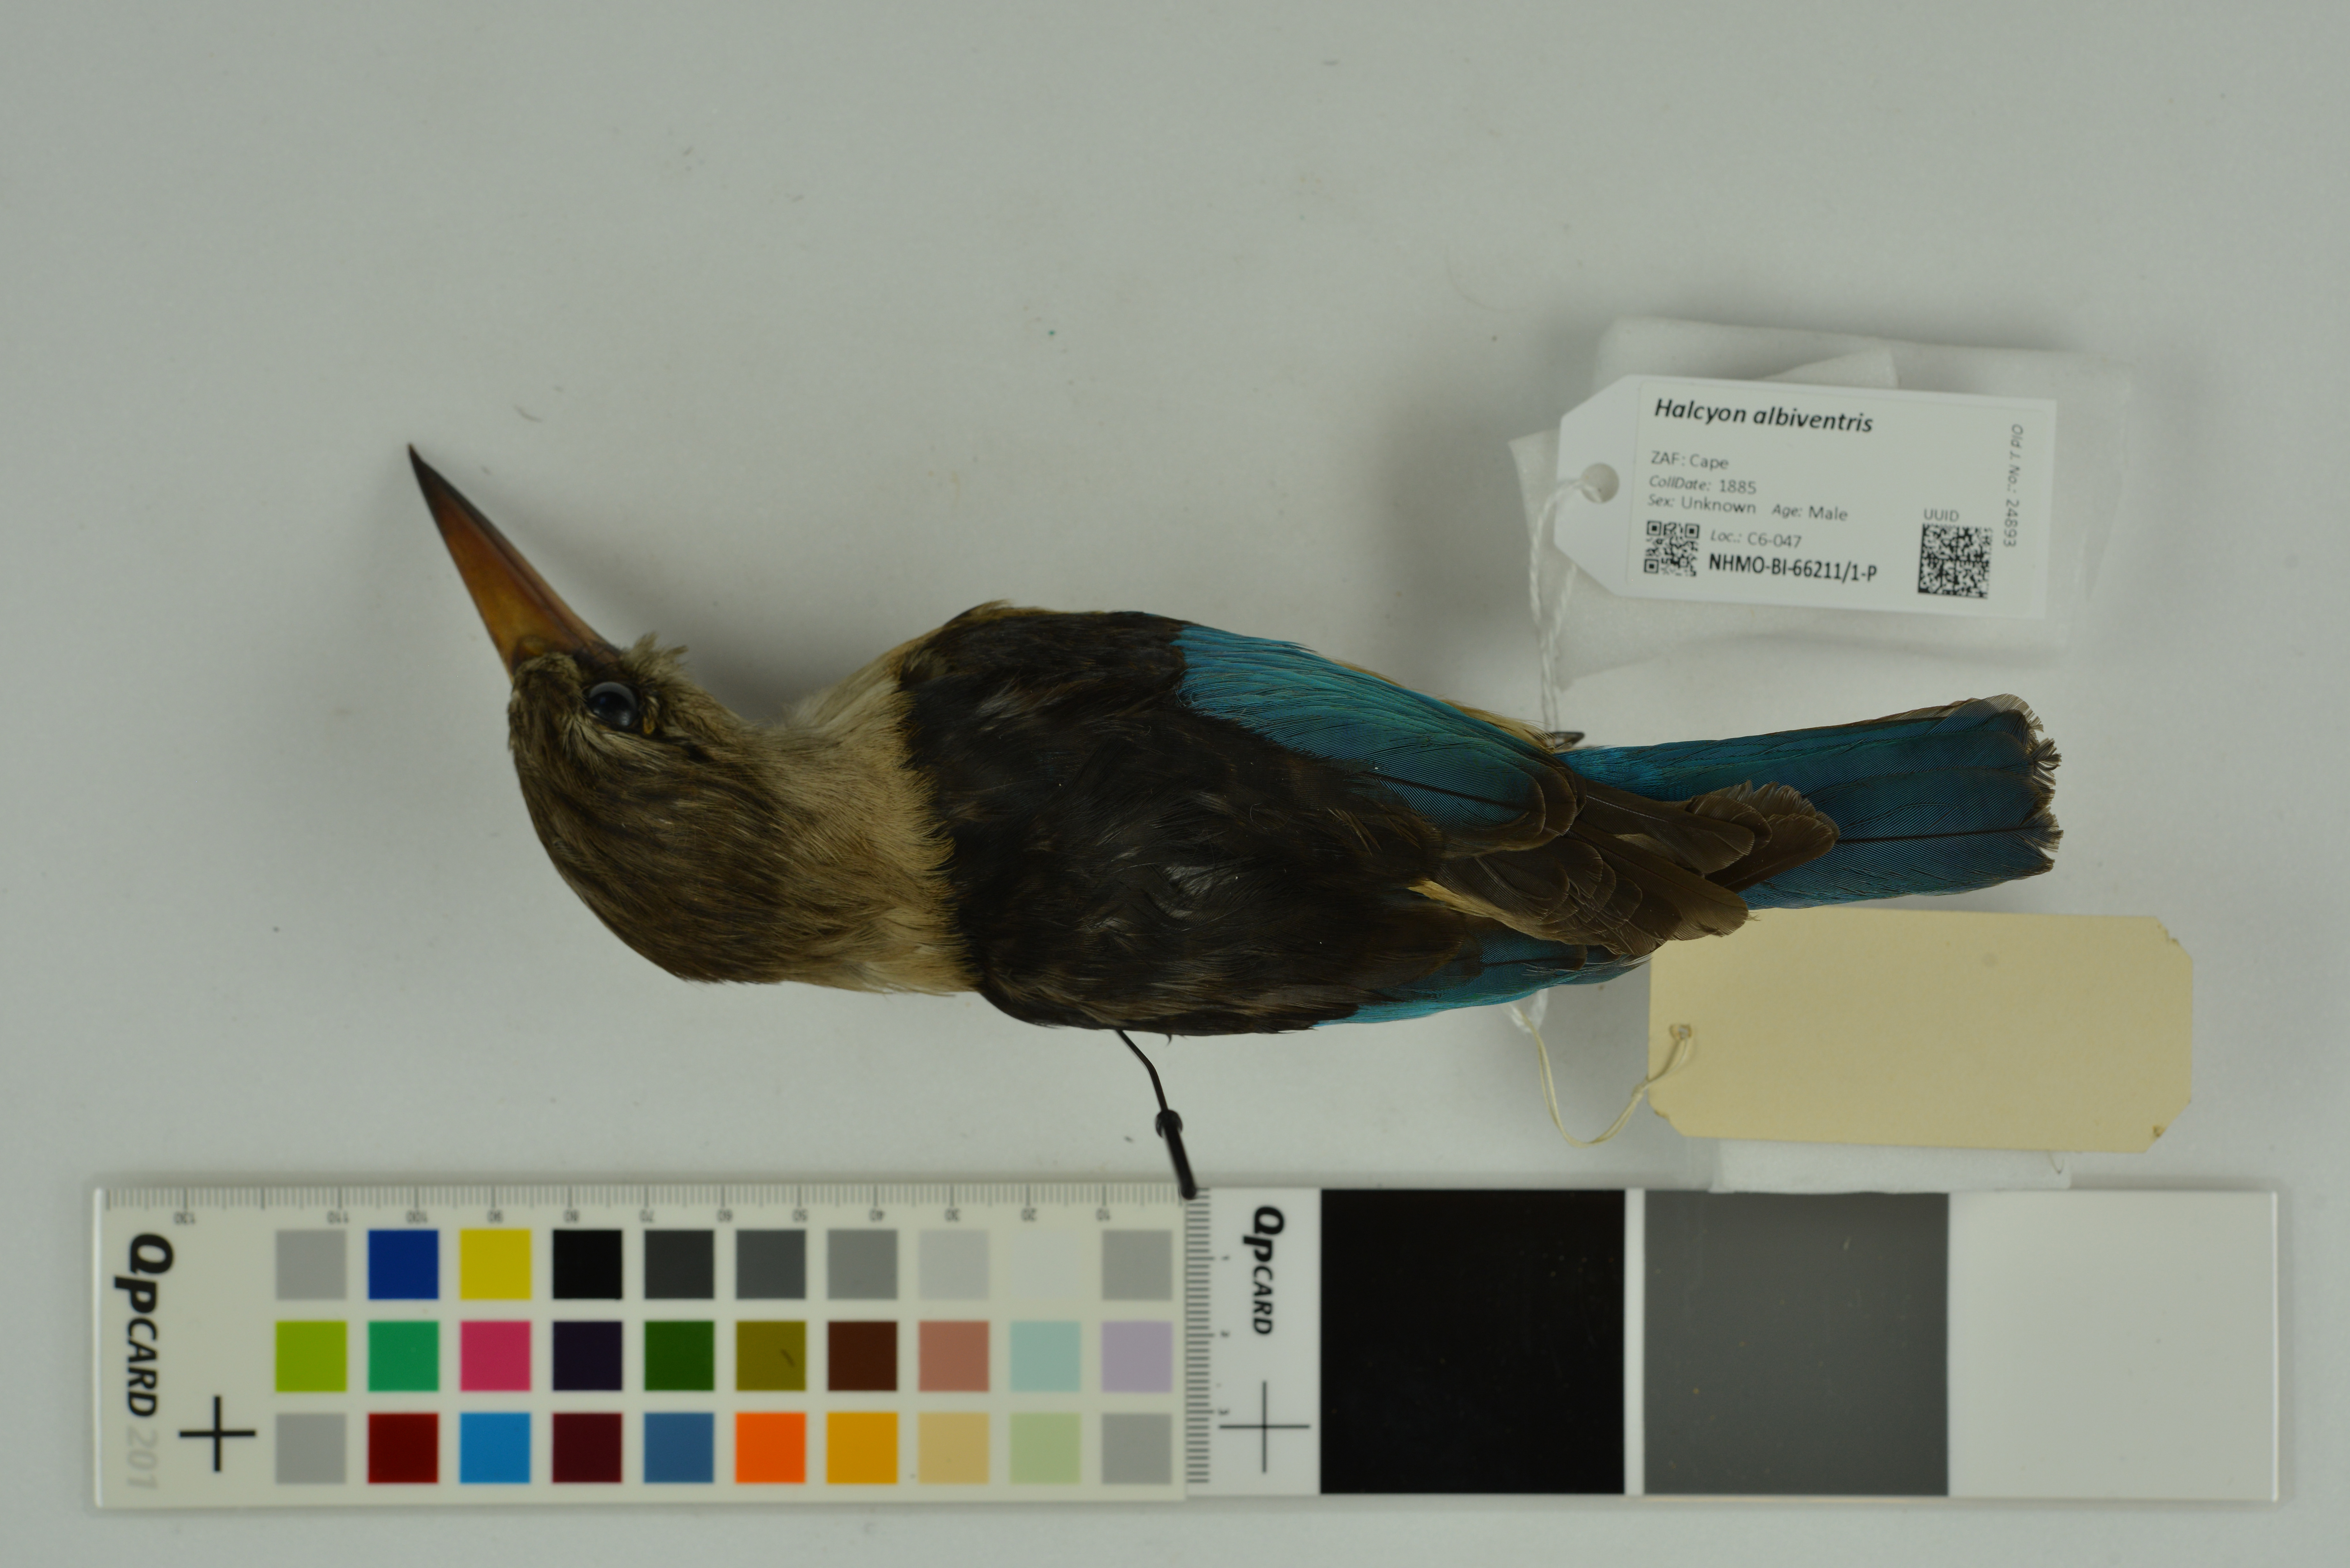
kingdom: Animalia
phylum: Chordata
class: Aves
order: Coraciiformes
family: Alcedinidae
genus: Halcyon
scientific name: Halcyon albiventris
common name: Brown-hooded kingfisher
